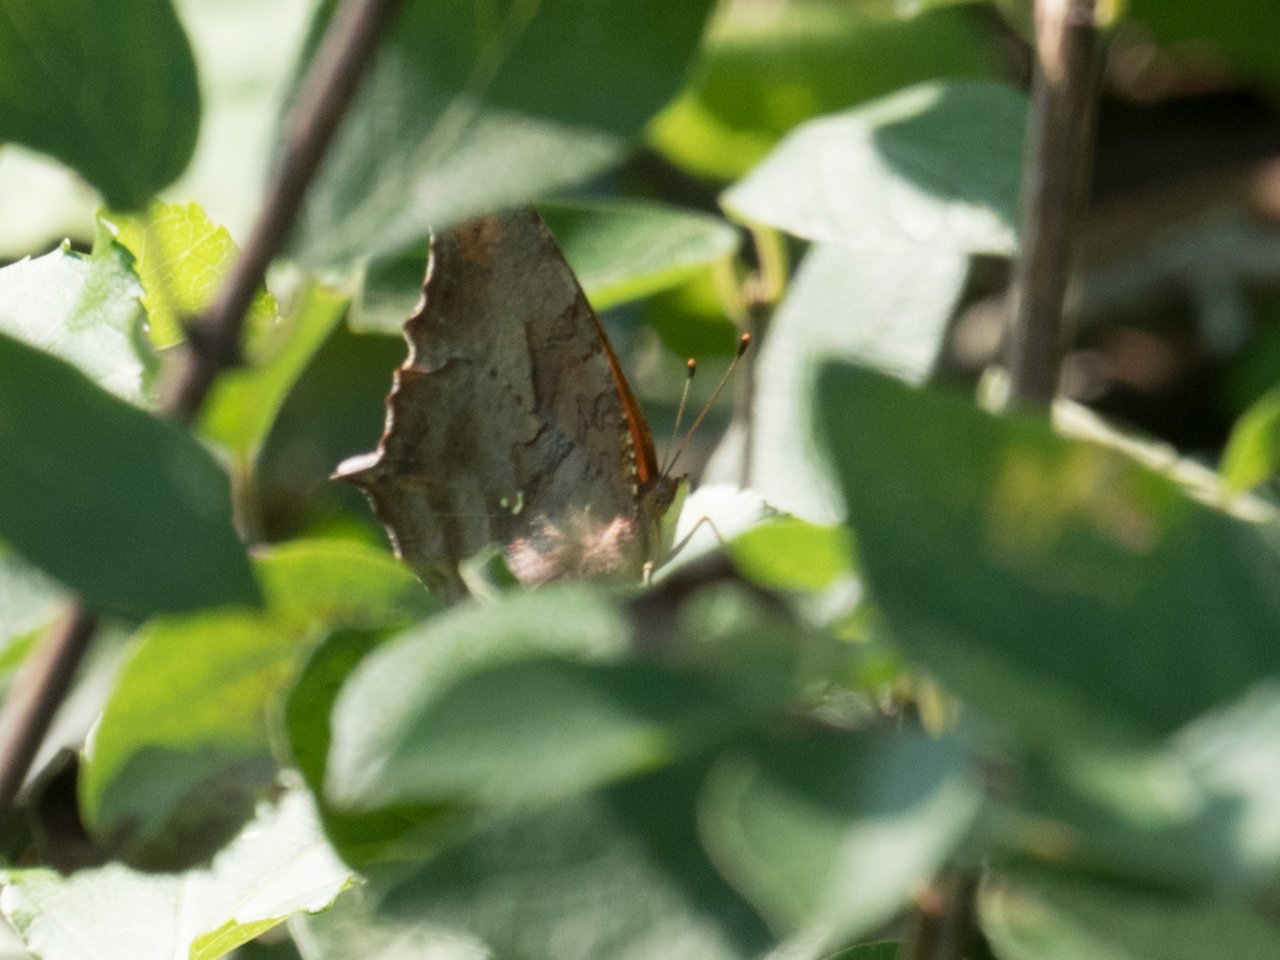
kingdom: Animalia
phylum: Arthropoda
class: Insecta
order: Lepidoptera
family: Nymphalidae
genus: Polygonia
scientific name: Polygonia interrogationis
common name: Question Mark
